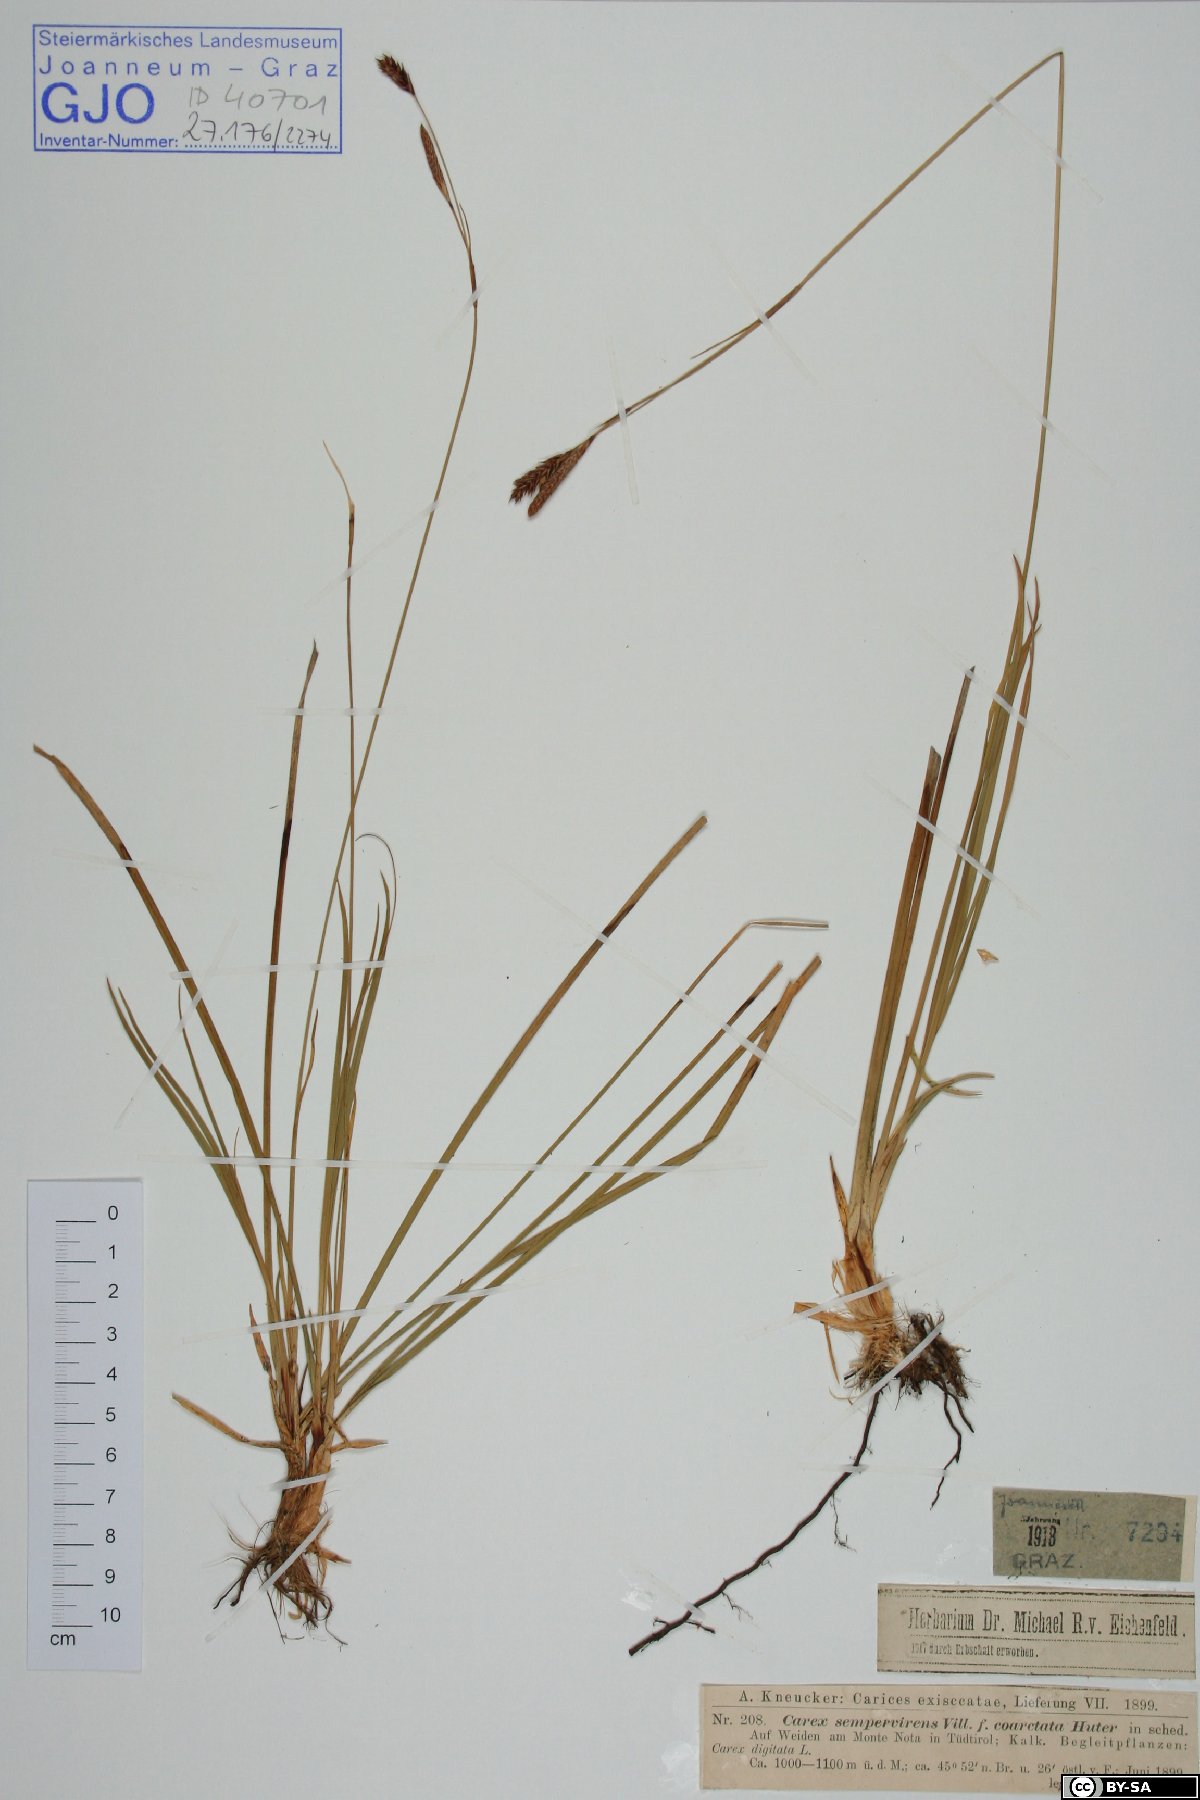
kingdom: Plantae
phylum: Tracheophyta
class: Liliopsida
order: Poales
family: Cyperaceae
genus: Carex
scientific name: Carex sempervirens
